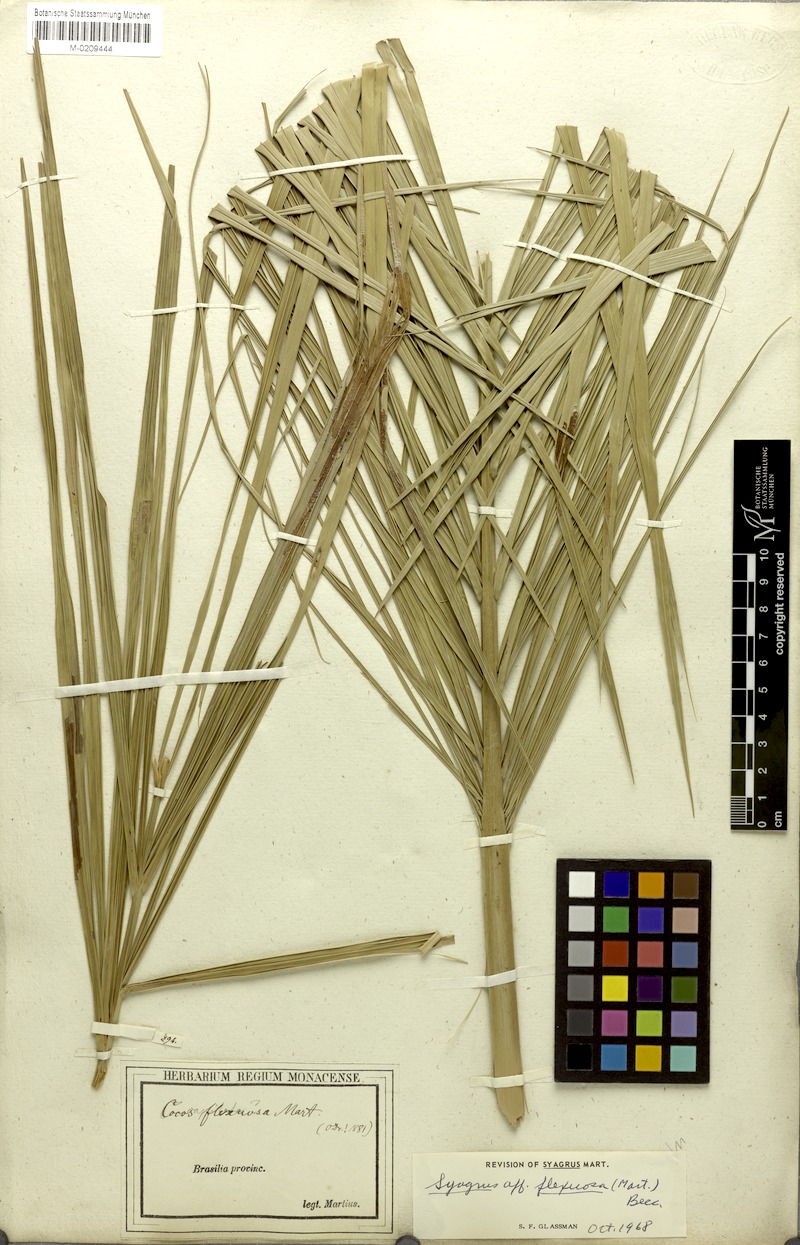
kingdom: Plantae
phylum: Tracheophyta
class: Liliopsida
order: Arecales
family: Arecaceae
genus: Syagrus
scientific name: Syagrus flexuosa
